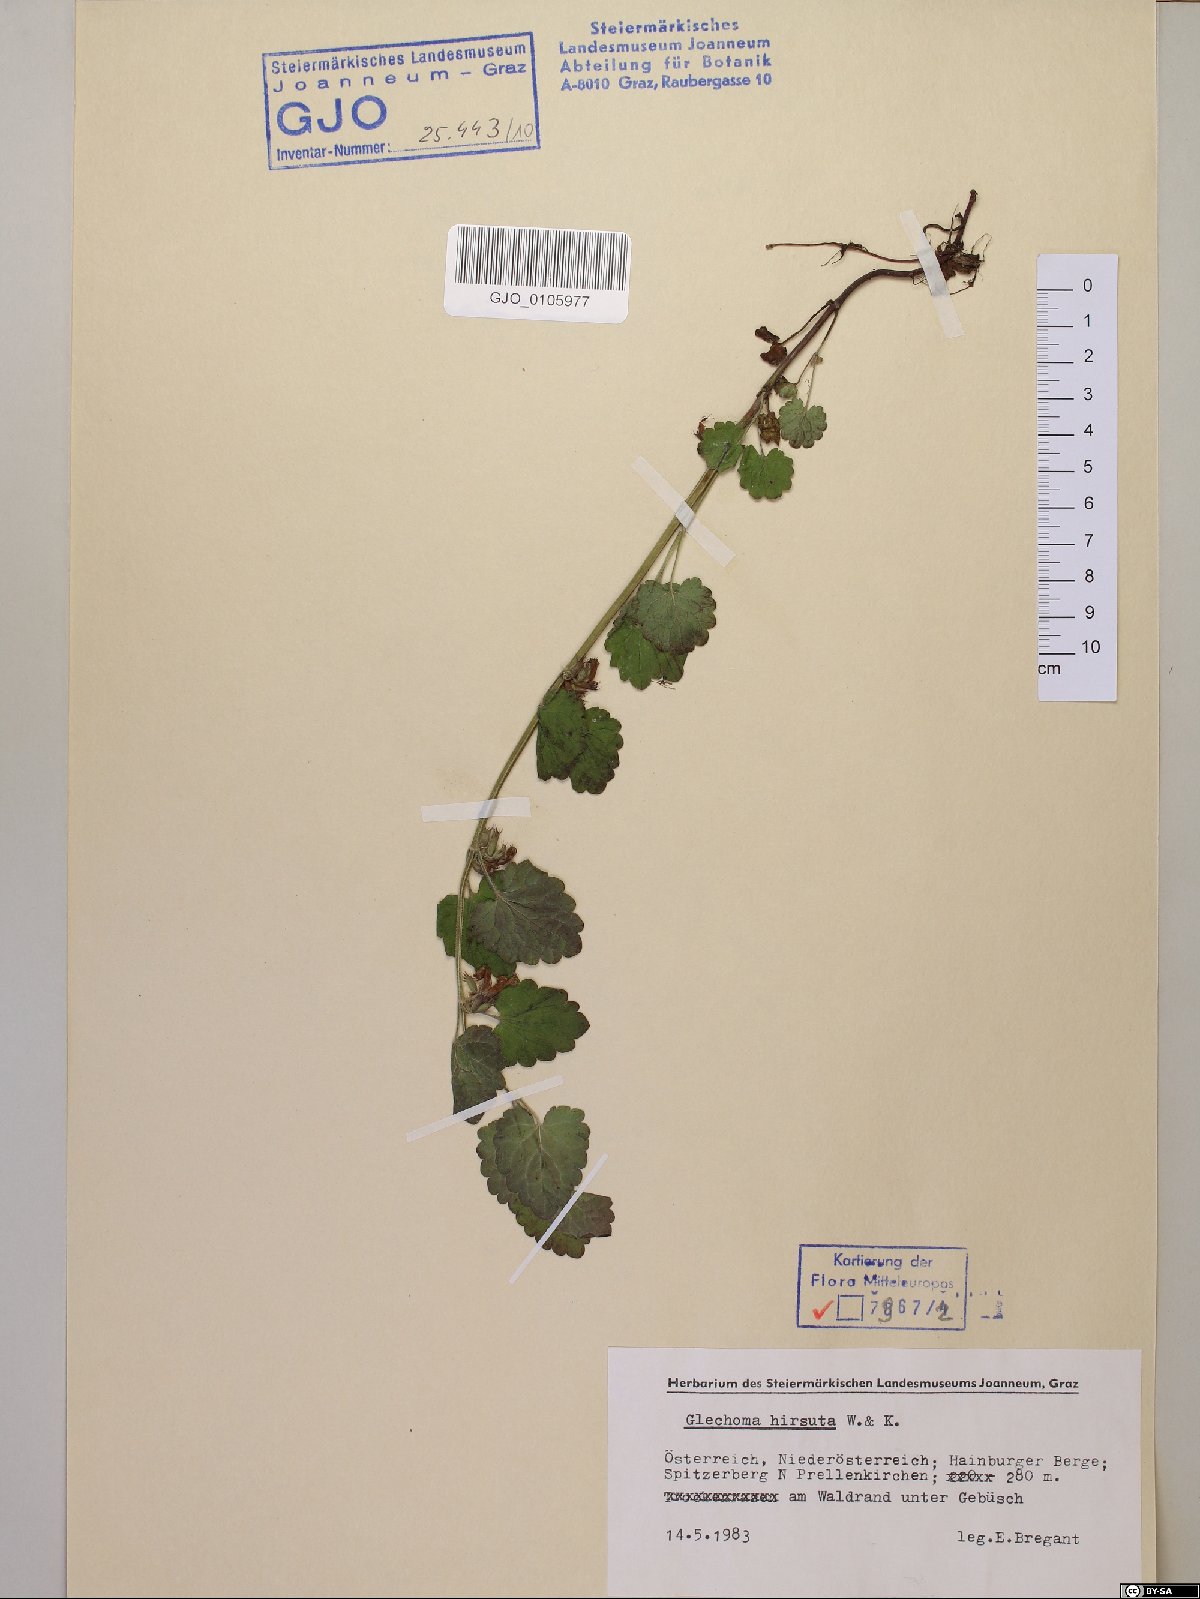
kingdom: Plantae
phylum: Tracheophyta
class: Magnoliopsida
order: Lamiales
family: Lamiaceae
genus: Glechoma
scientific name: Glechoma hirsuta
